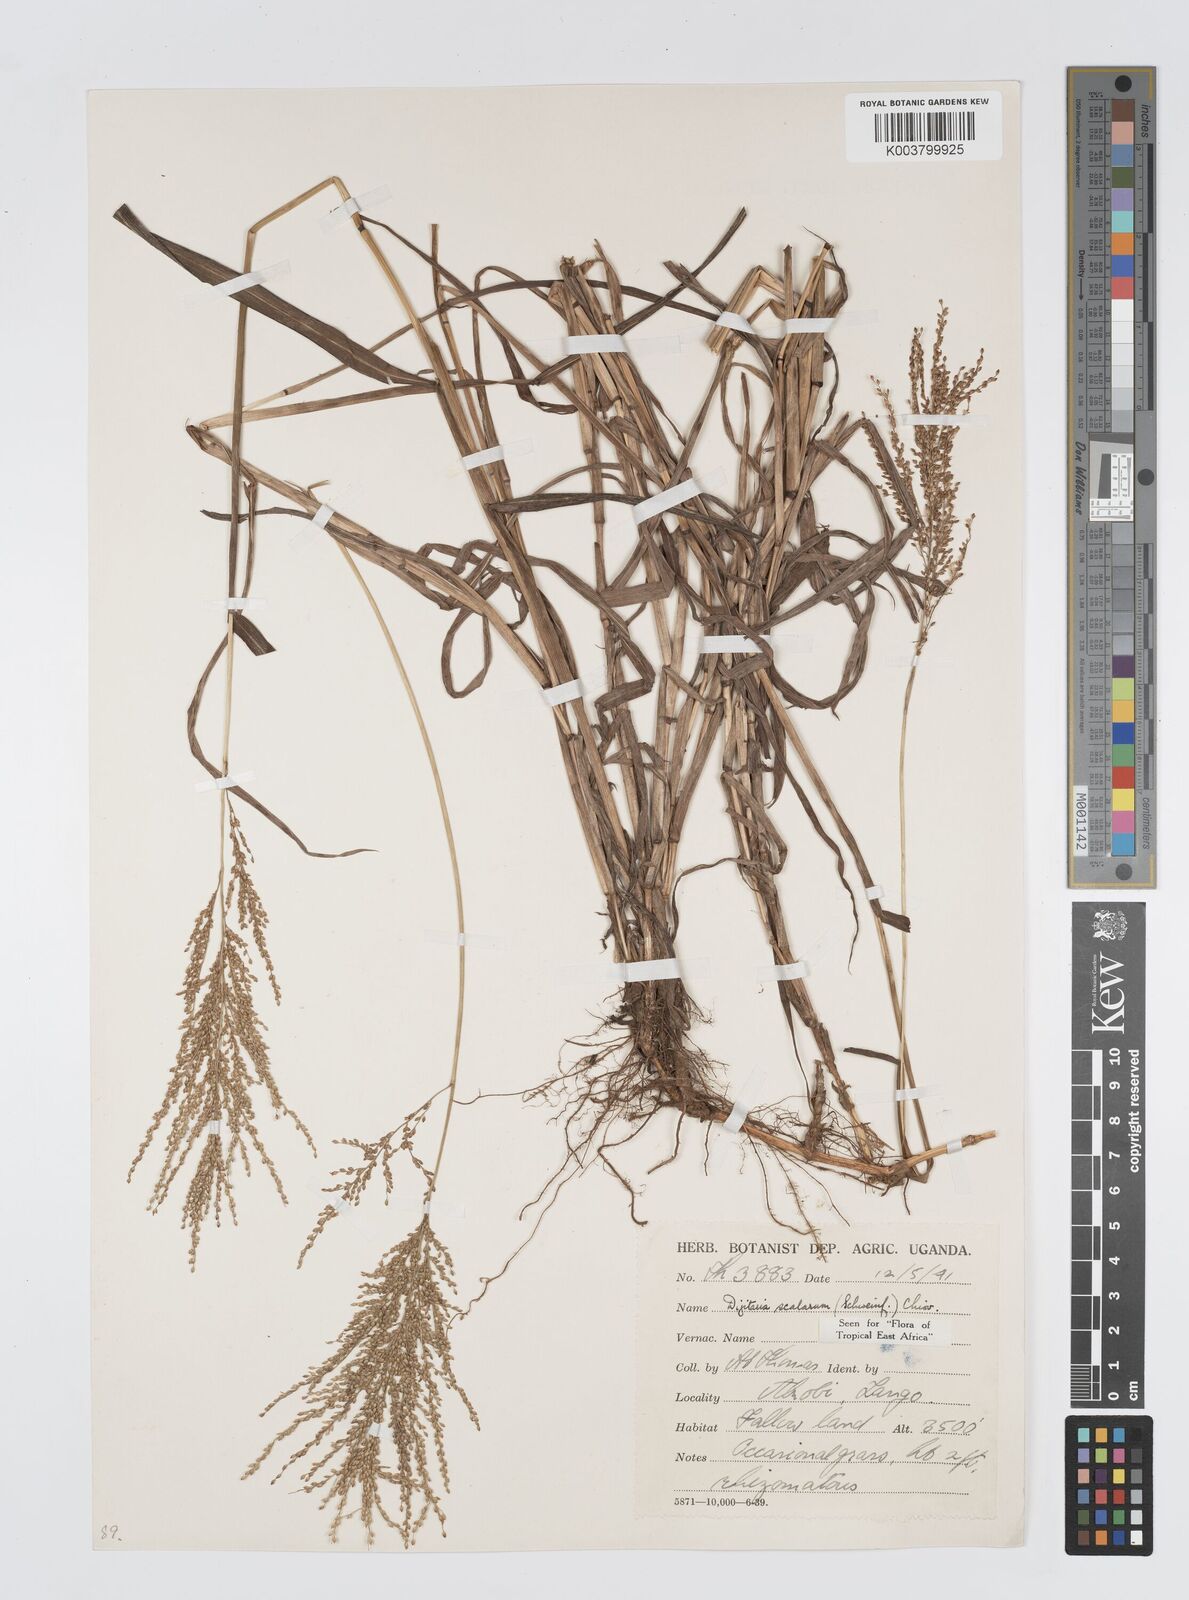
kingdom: Plantae
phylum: Tracheophyta
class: Liliopsida
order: Poales
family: Poaceae
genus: Digitaria
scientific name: Digitaria abyssinica
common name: African couchgrass
